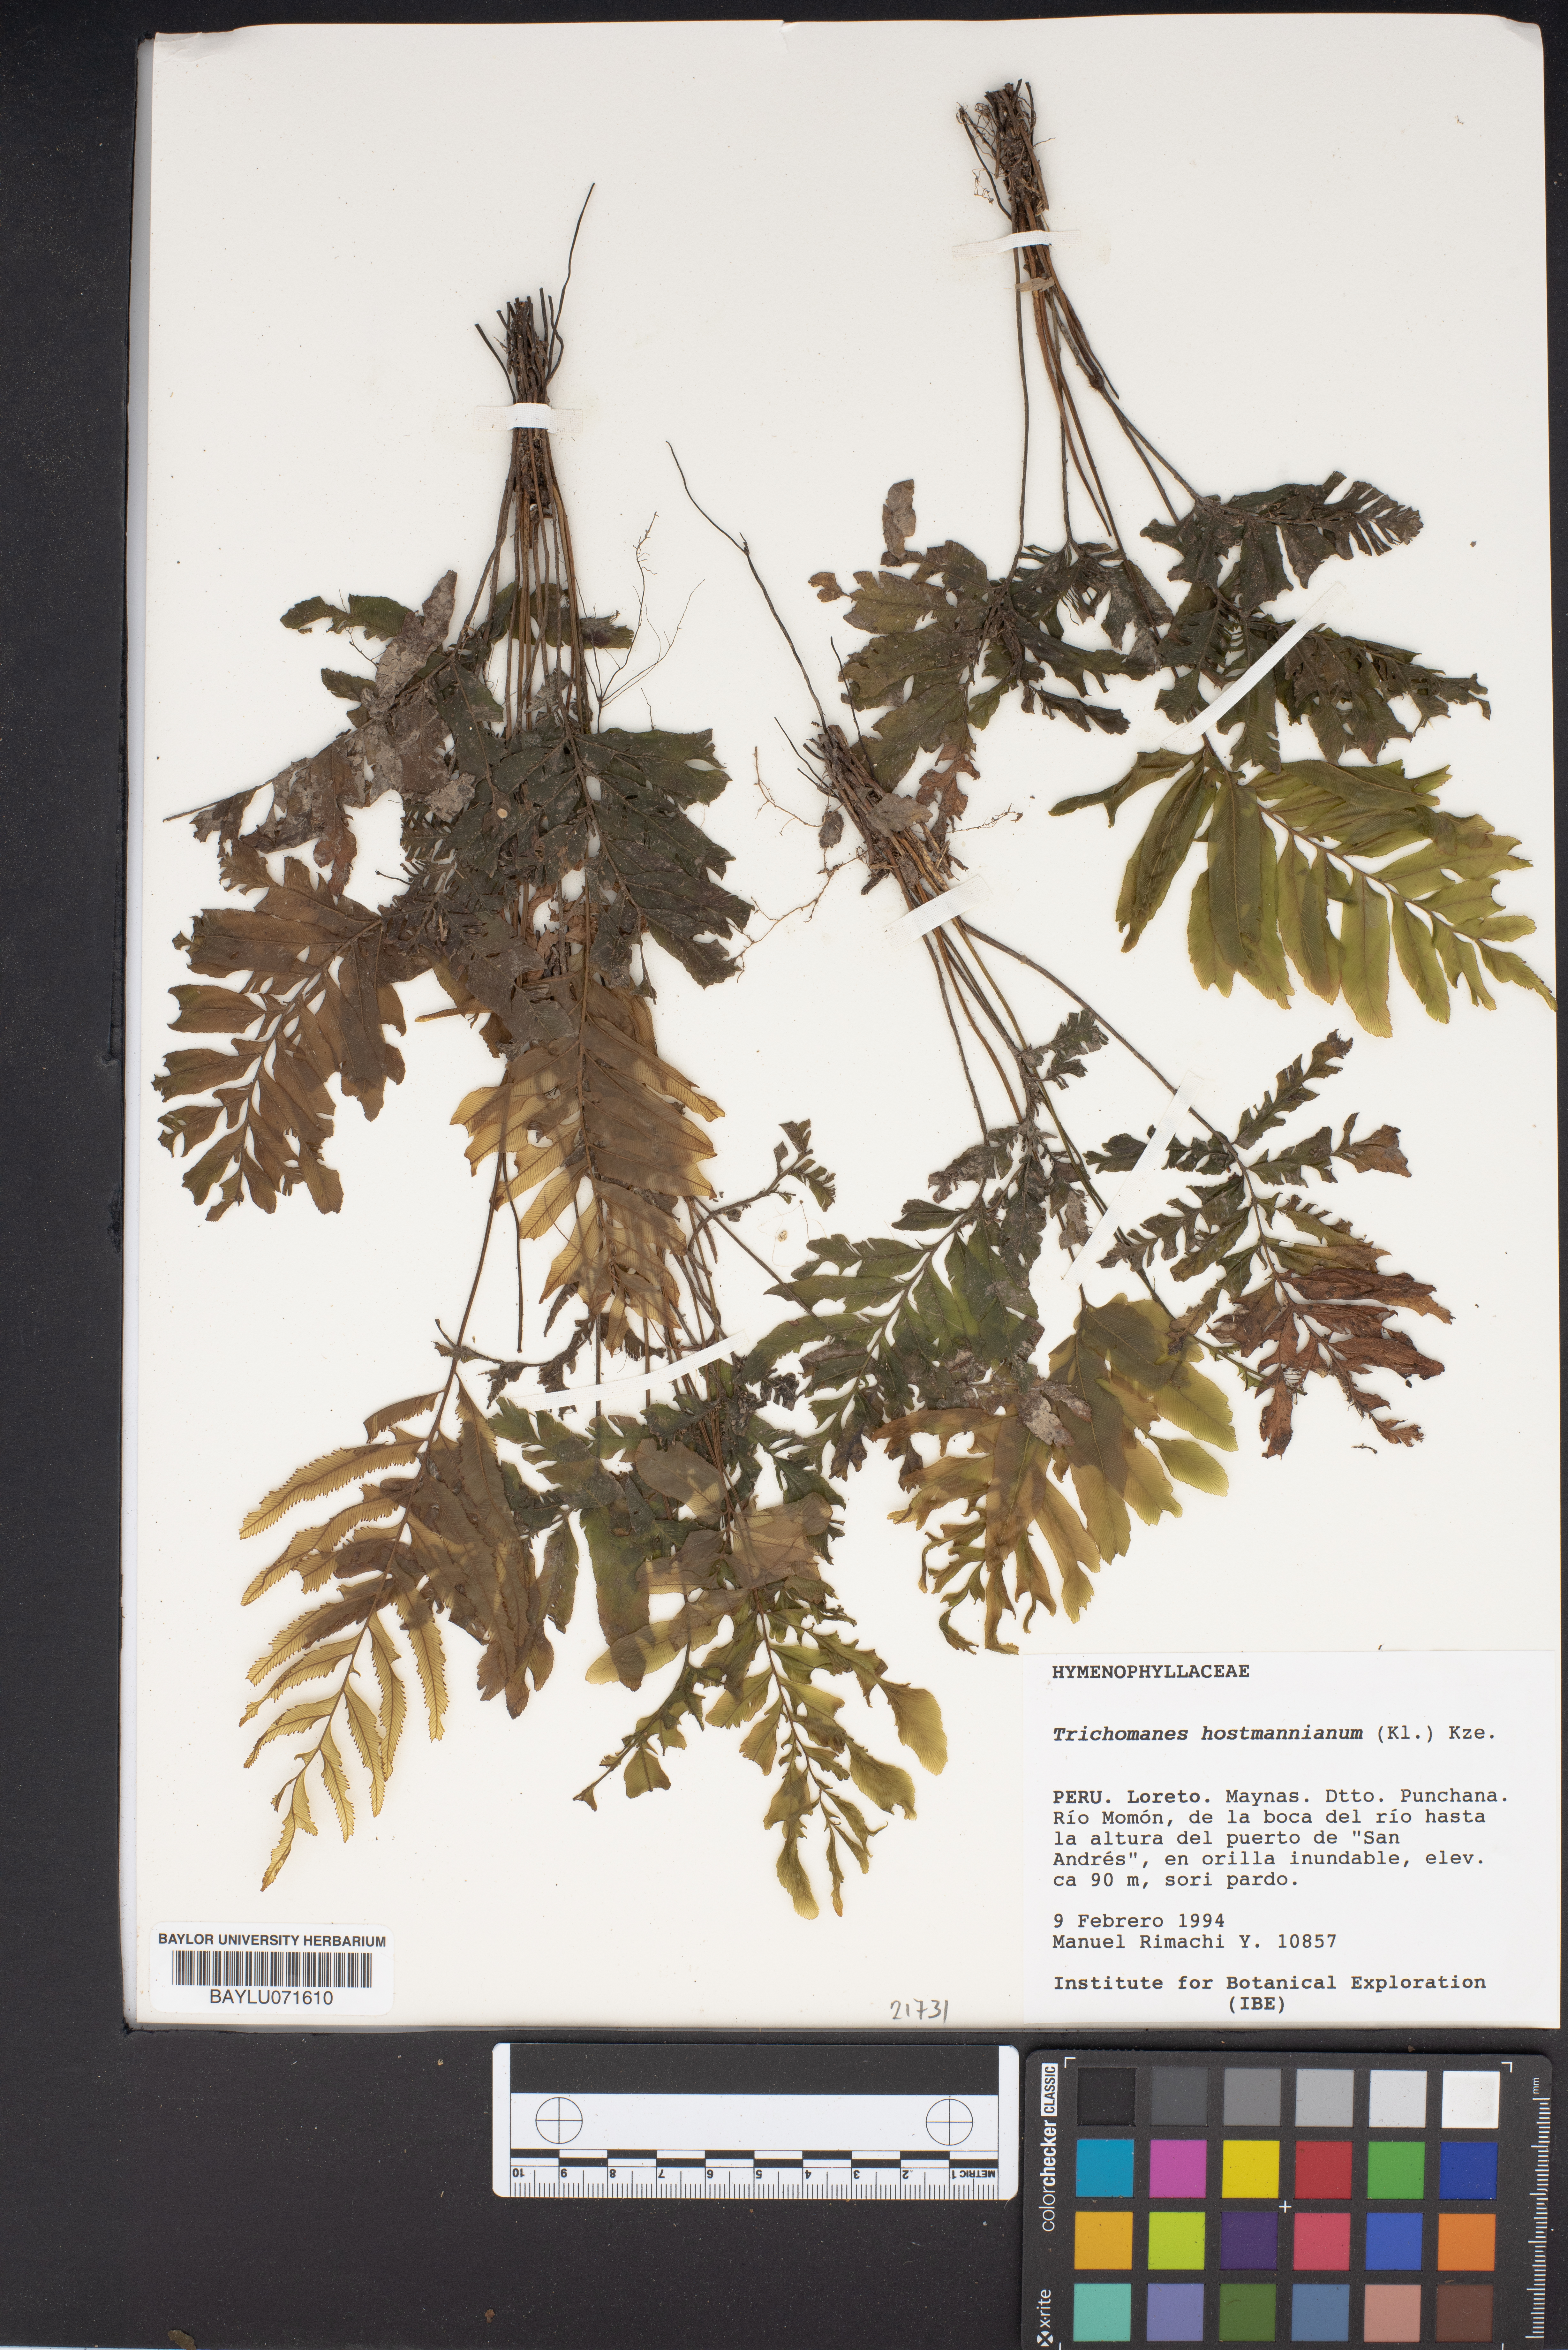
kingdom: Plantae
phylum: Tracheophyta
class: Polypodiopsida
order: Hymenophyllales
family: Hymenophyllaceae
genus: Trichomanes
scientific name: Trichomanes hostmannianum
